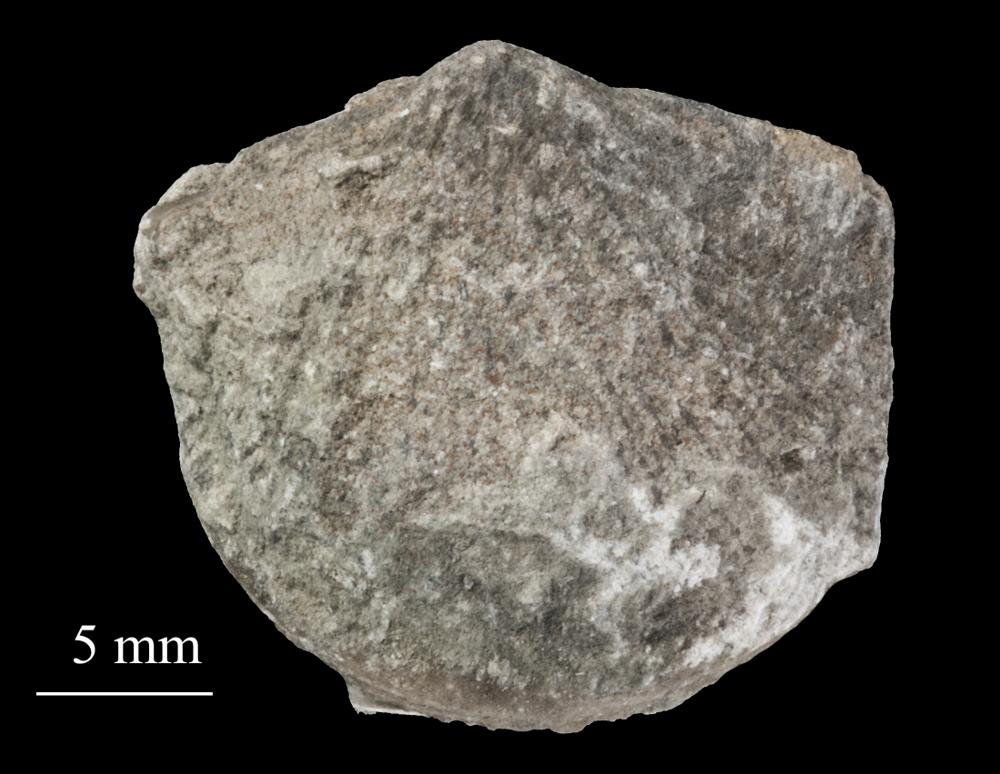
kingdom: Animalia
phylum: Brachiopoda
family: Gonambonitidae
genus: Estlandia
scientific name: Estlandia Orthisina marginata
